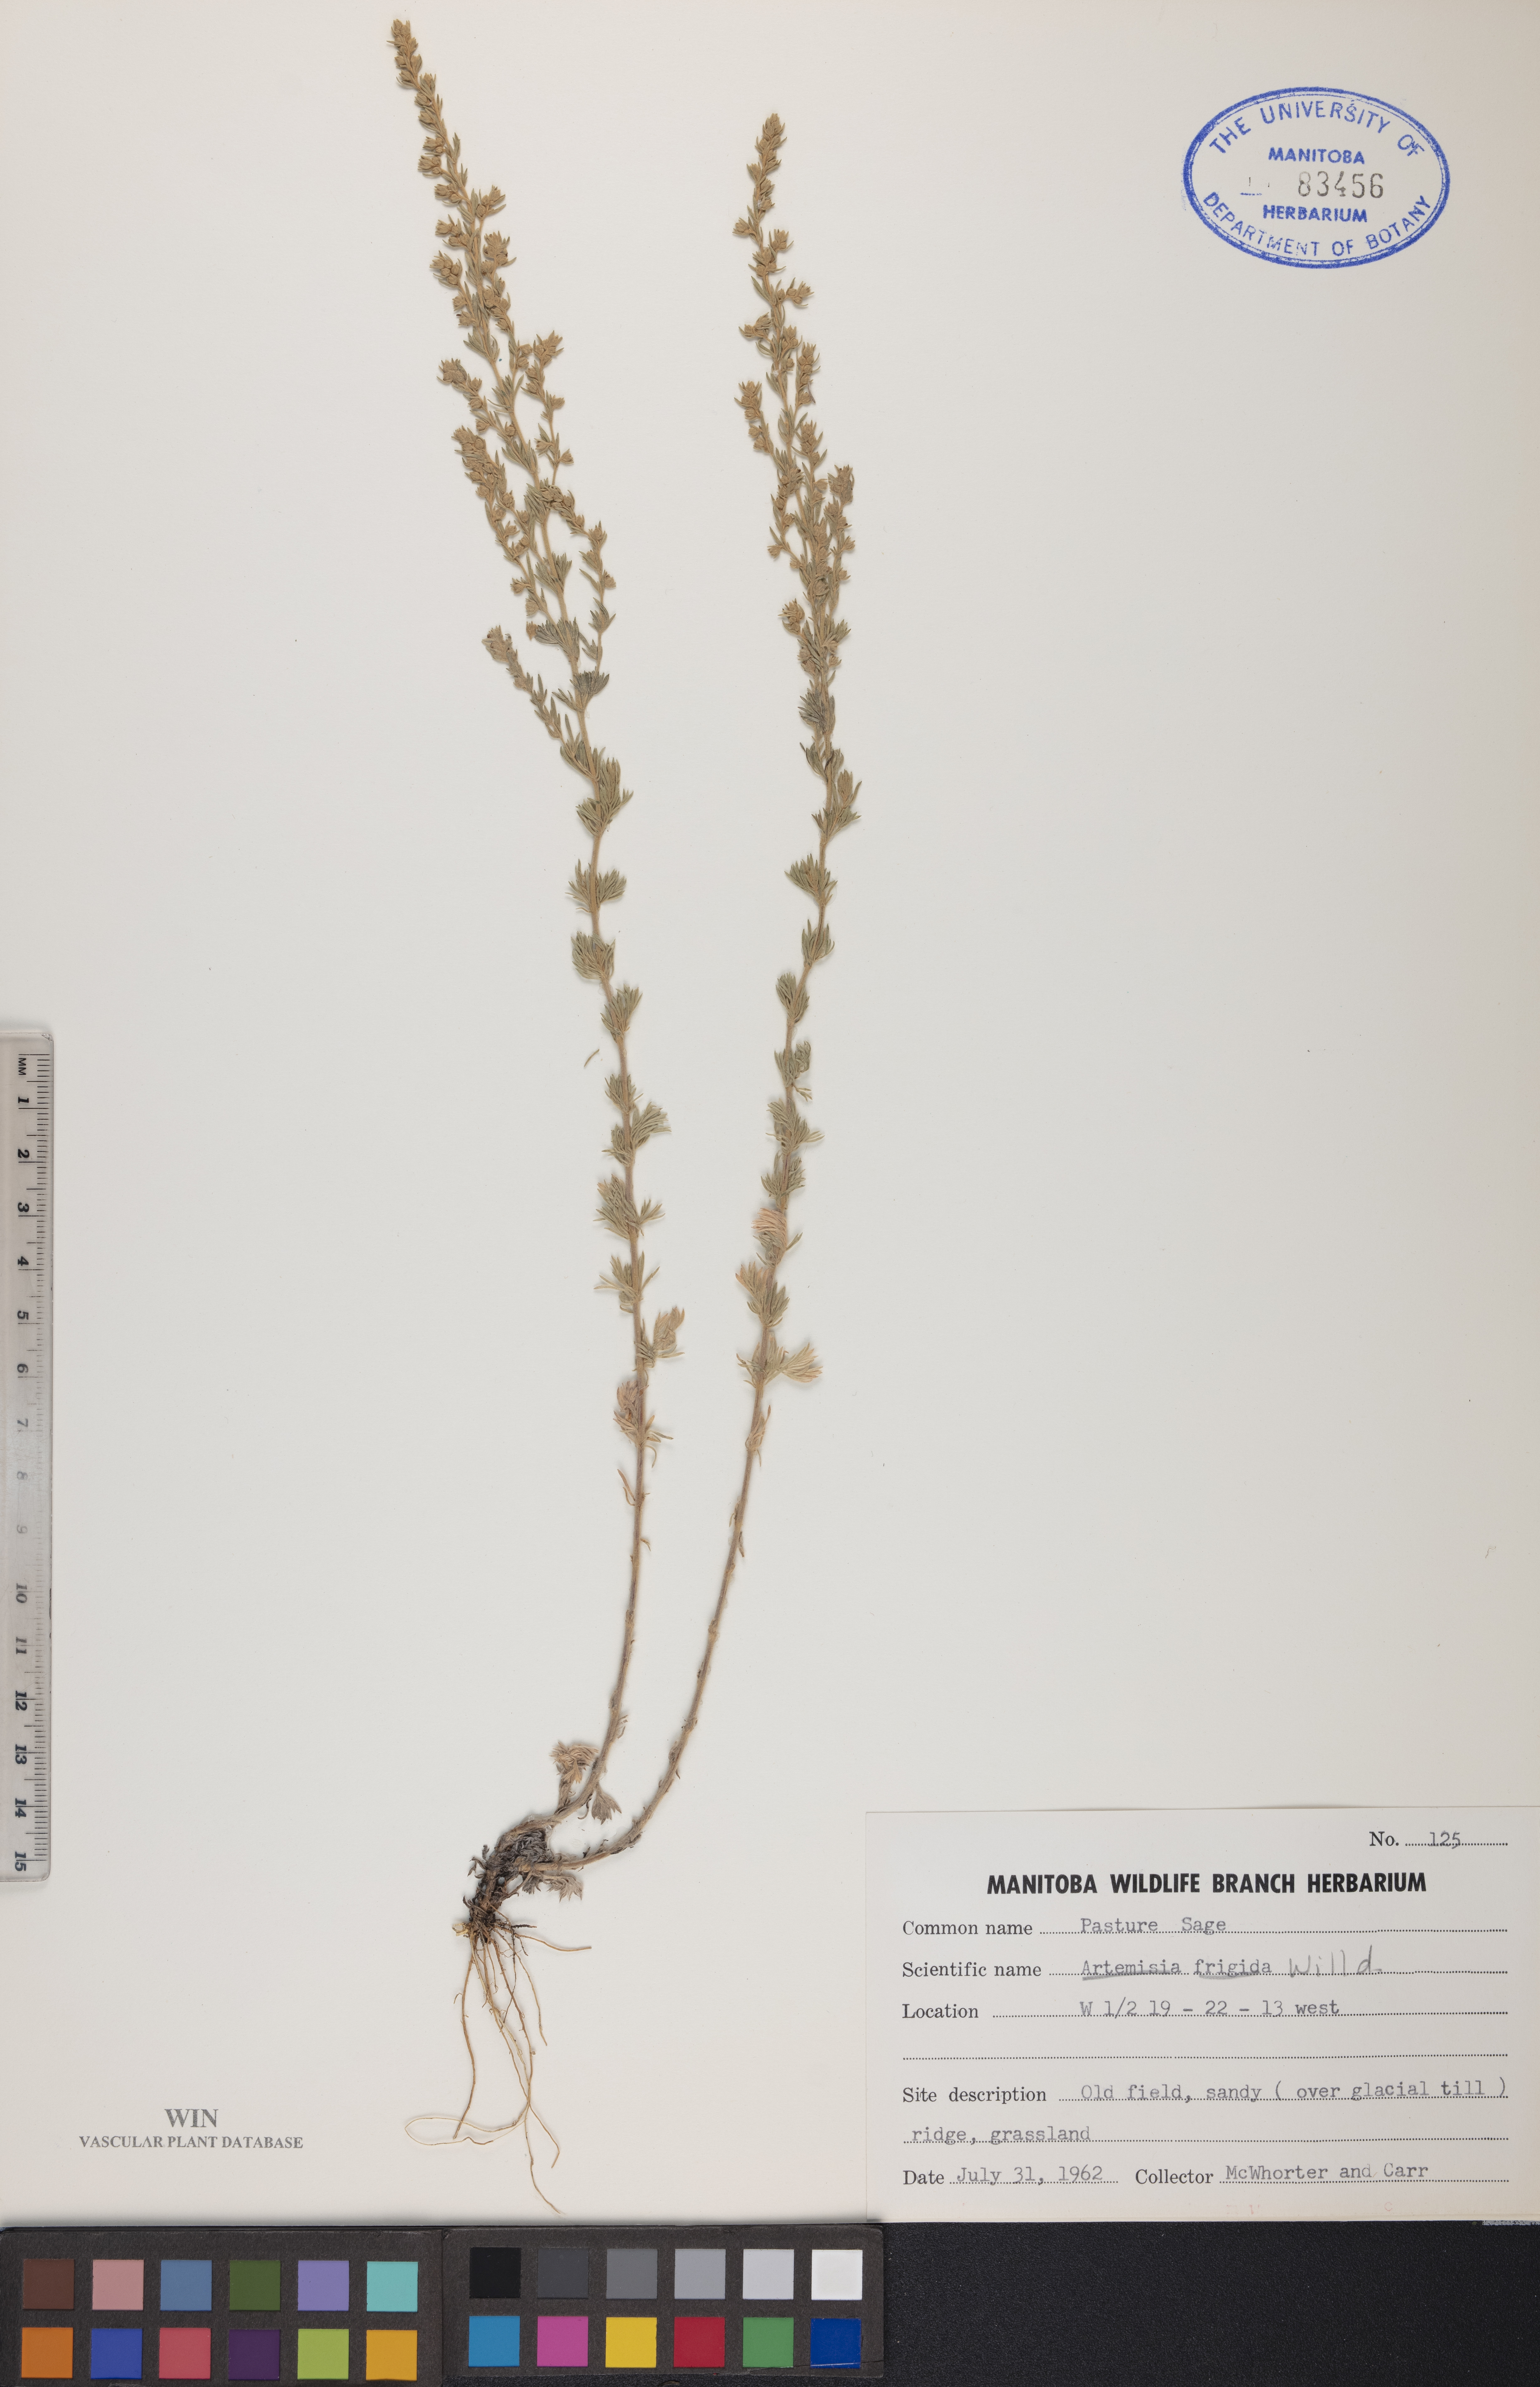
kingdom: Plantae
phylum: Tracheophyta
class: Magnoliopsida
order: Asterales
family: Asteraceae
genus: Artemisia
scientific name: Artemisia frigida
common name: Prairie sagewort
